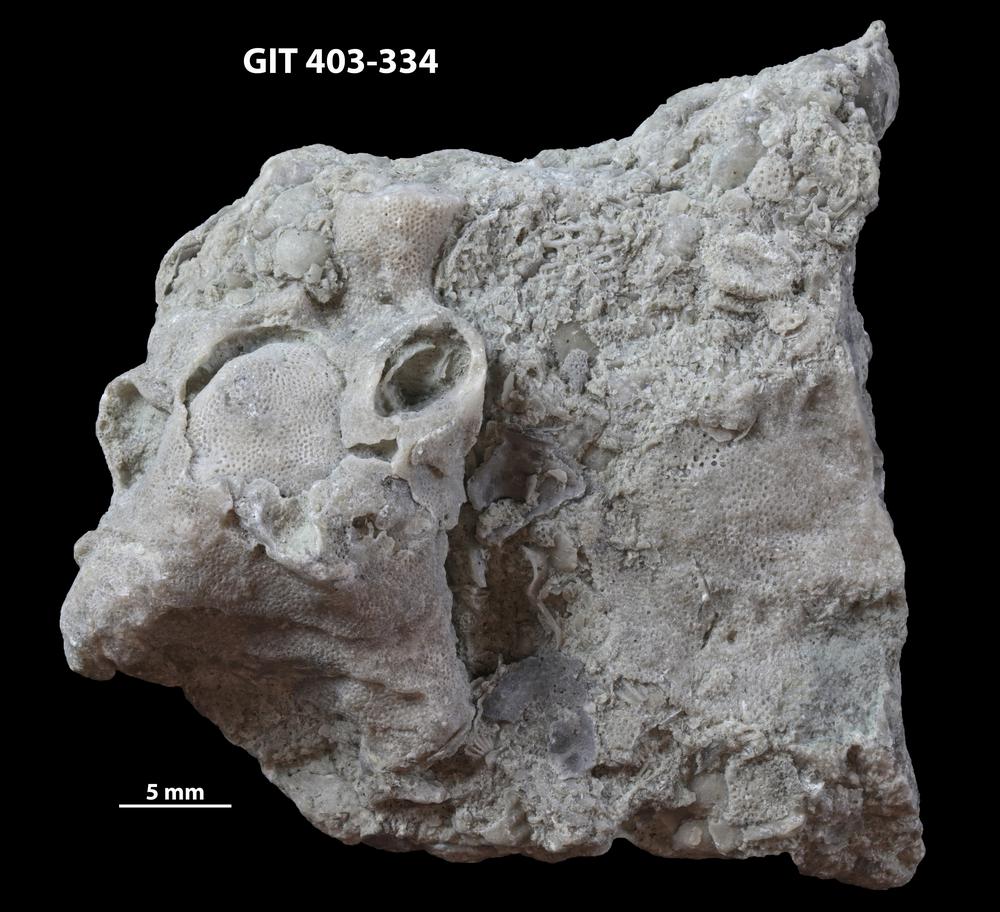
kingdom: Animalia
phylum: Bryozoa
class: Stenolaemata
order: Cystoporida
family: Fistuliporidae
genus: Fistulipora
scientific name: Fistulipora przhidolensis
